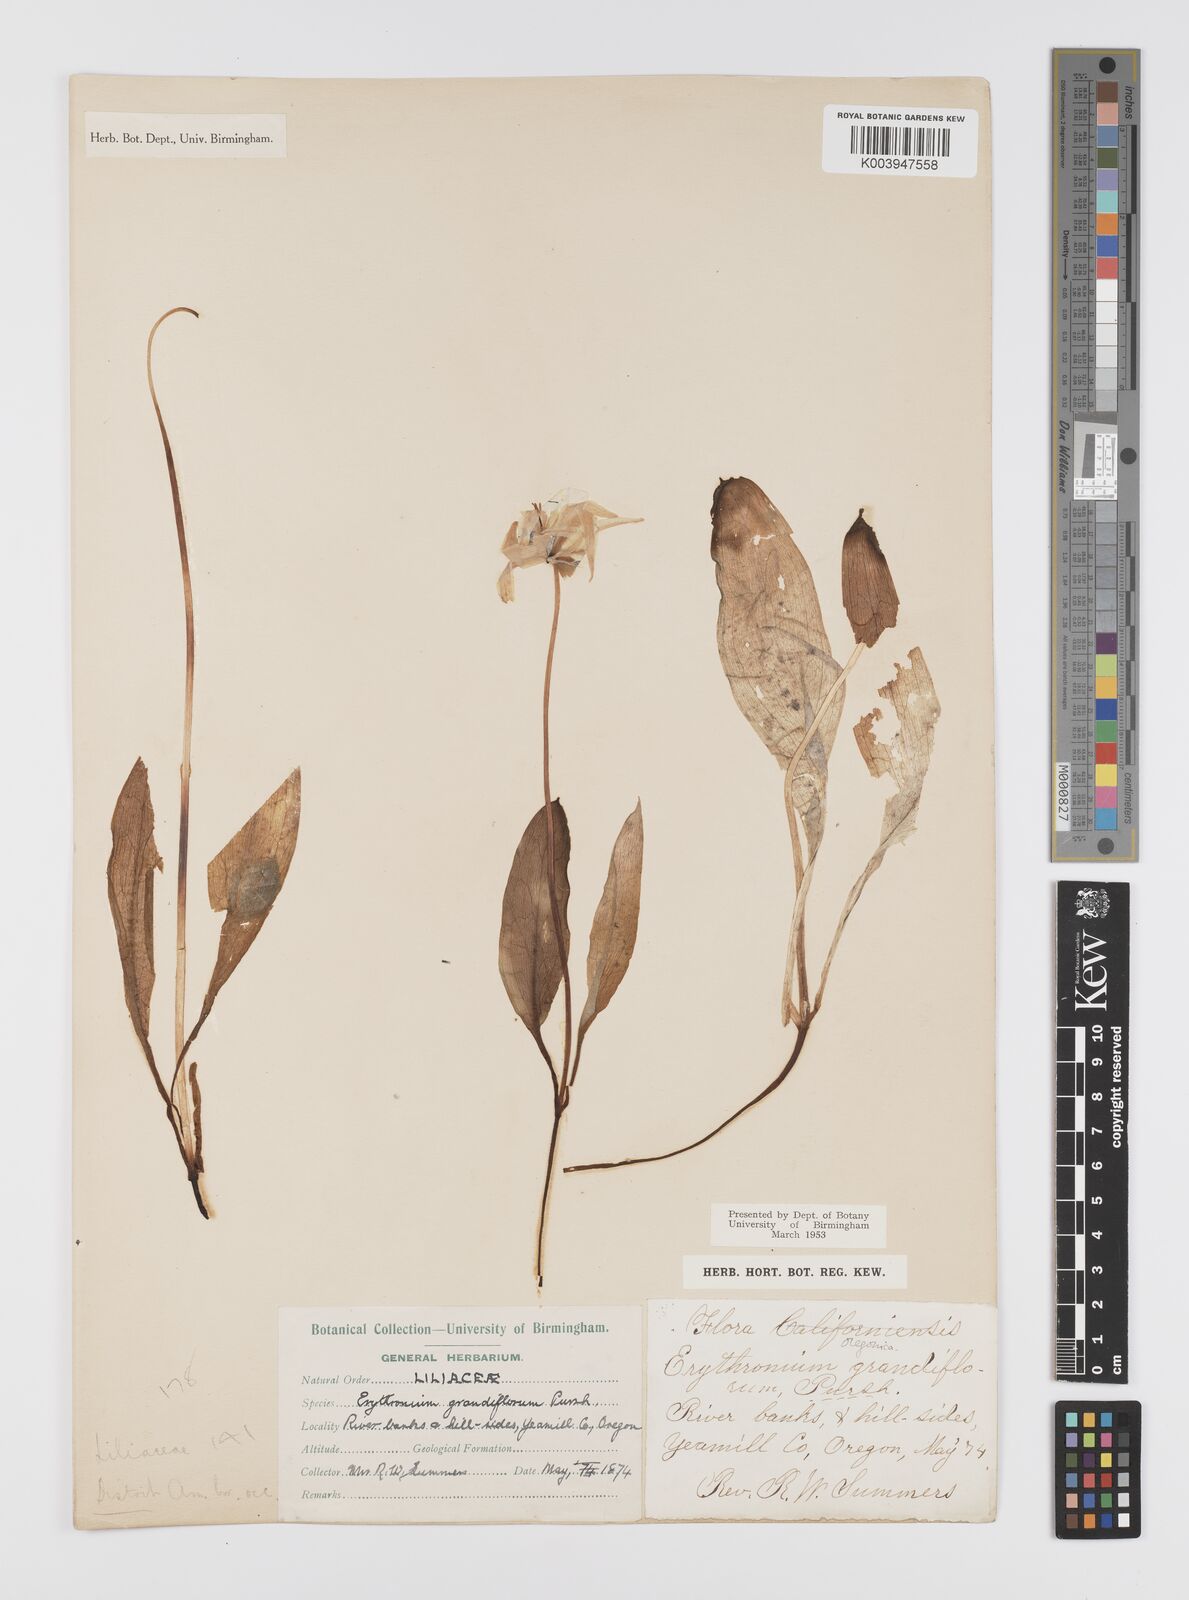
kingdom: Plantae
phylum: Tracheophyta
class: Liliopsida
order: Liliales
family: Liliaceae
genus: Erythronium
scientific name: Erythronium grandiflorum
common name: Avalanche-lily
